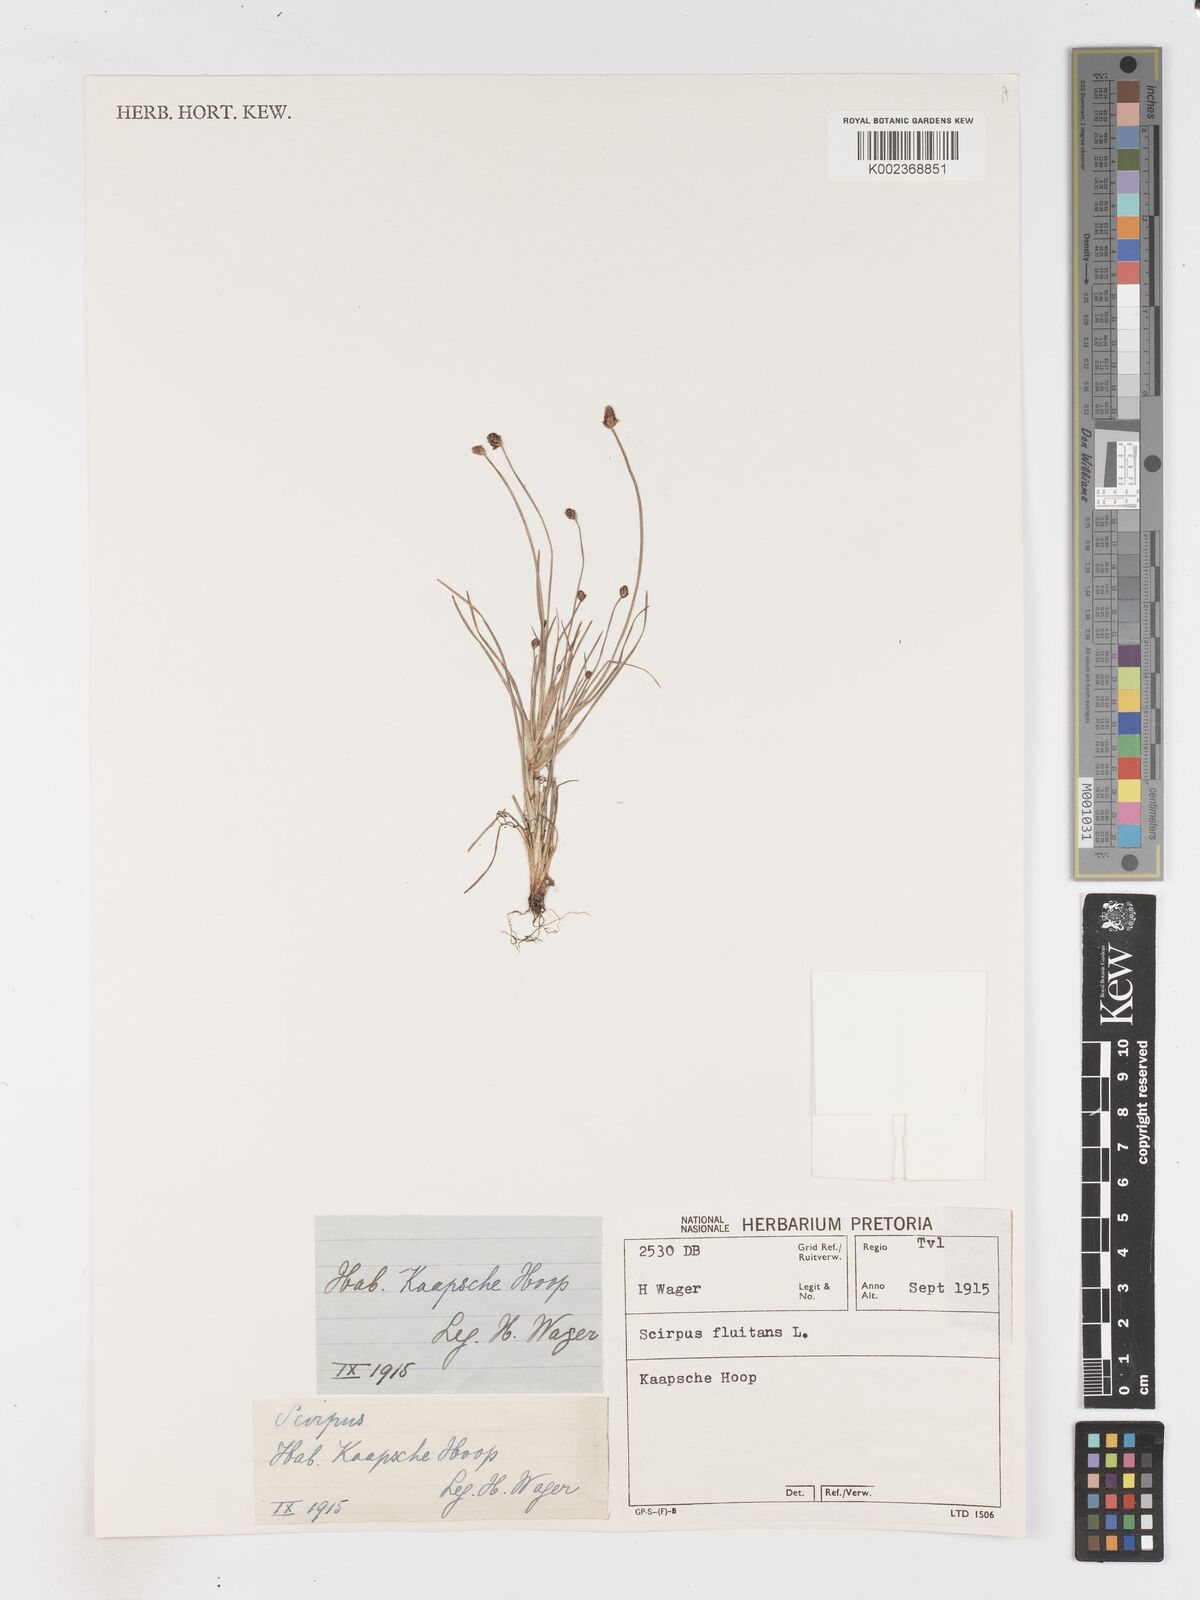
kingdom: Plantae
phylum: Tracheophyta
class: Liliopsida
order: Poales
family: Cyperaceae
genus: Isolepis
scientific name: Isolepis fluitans
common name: Floating club-rush
